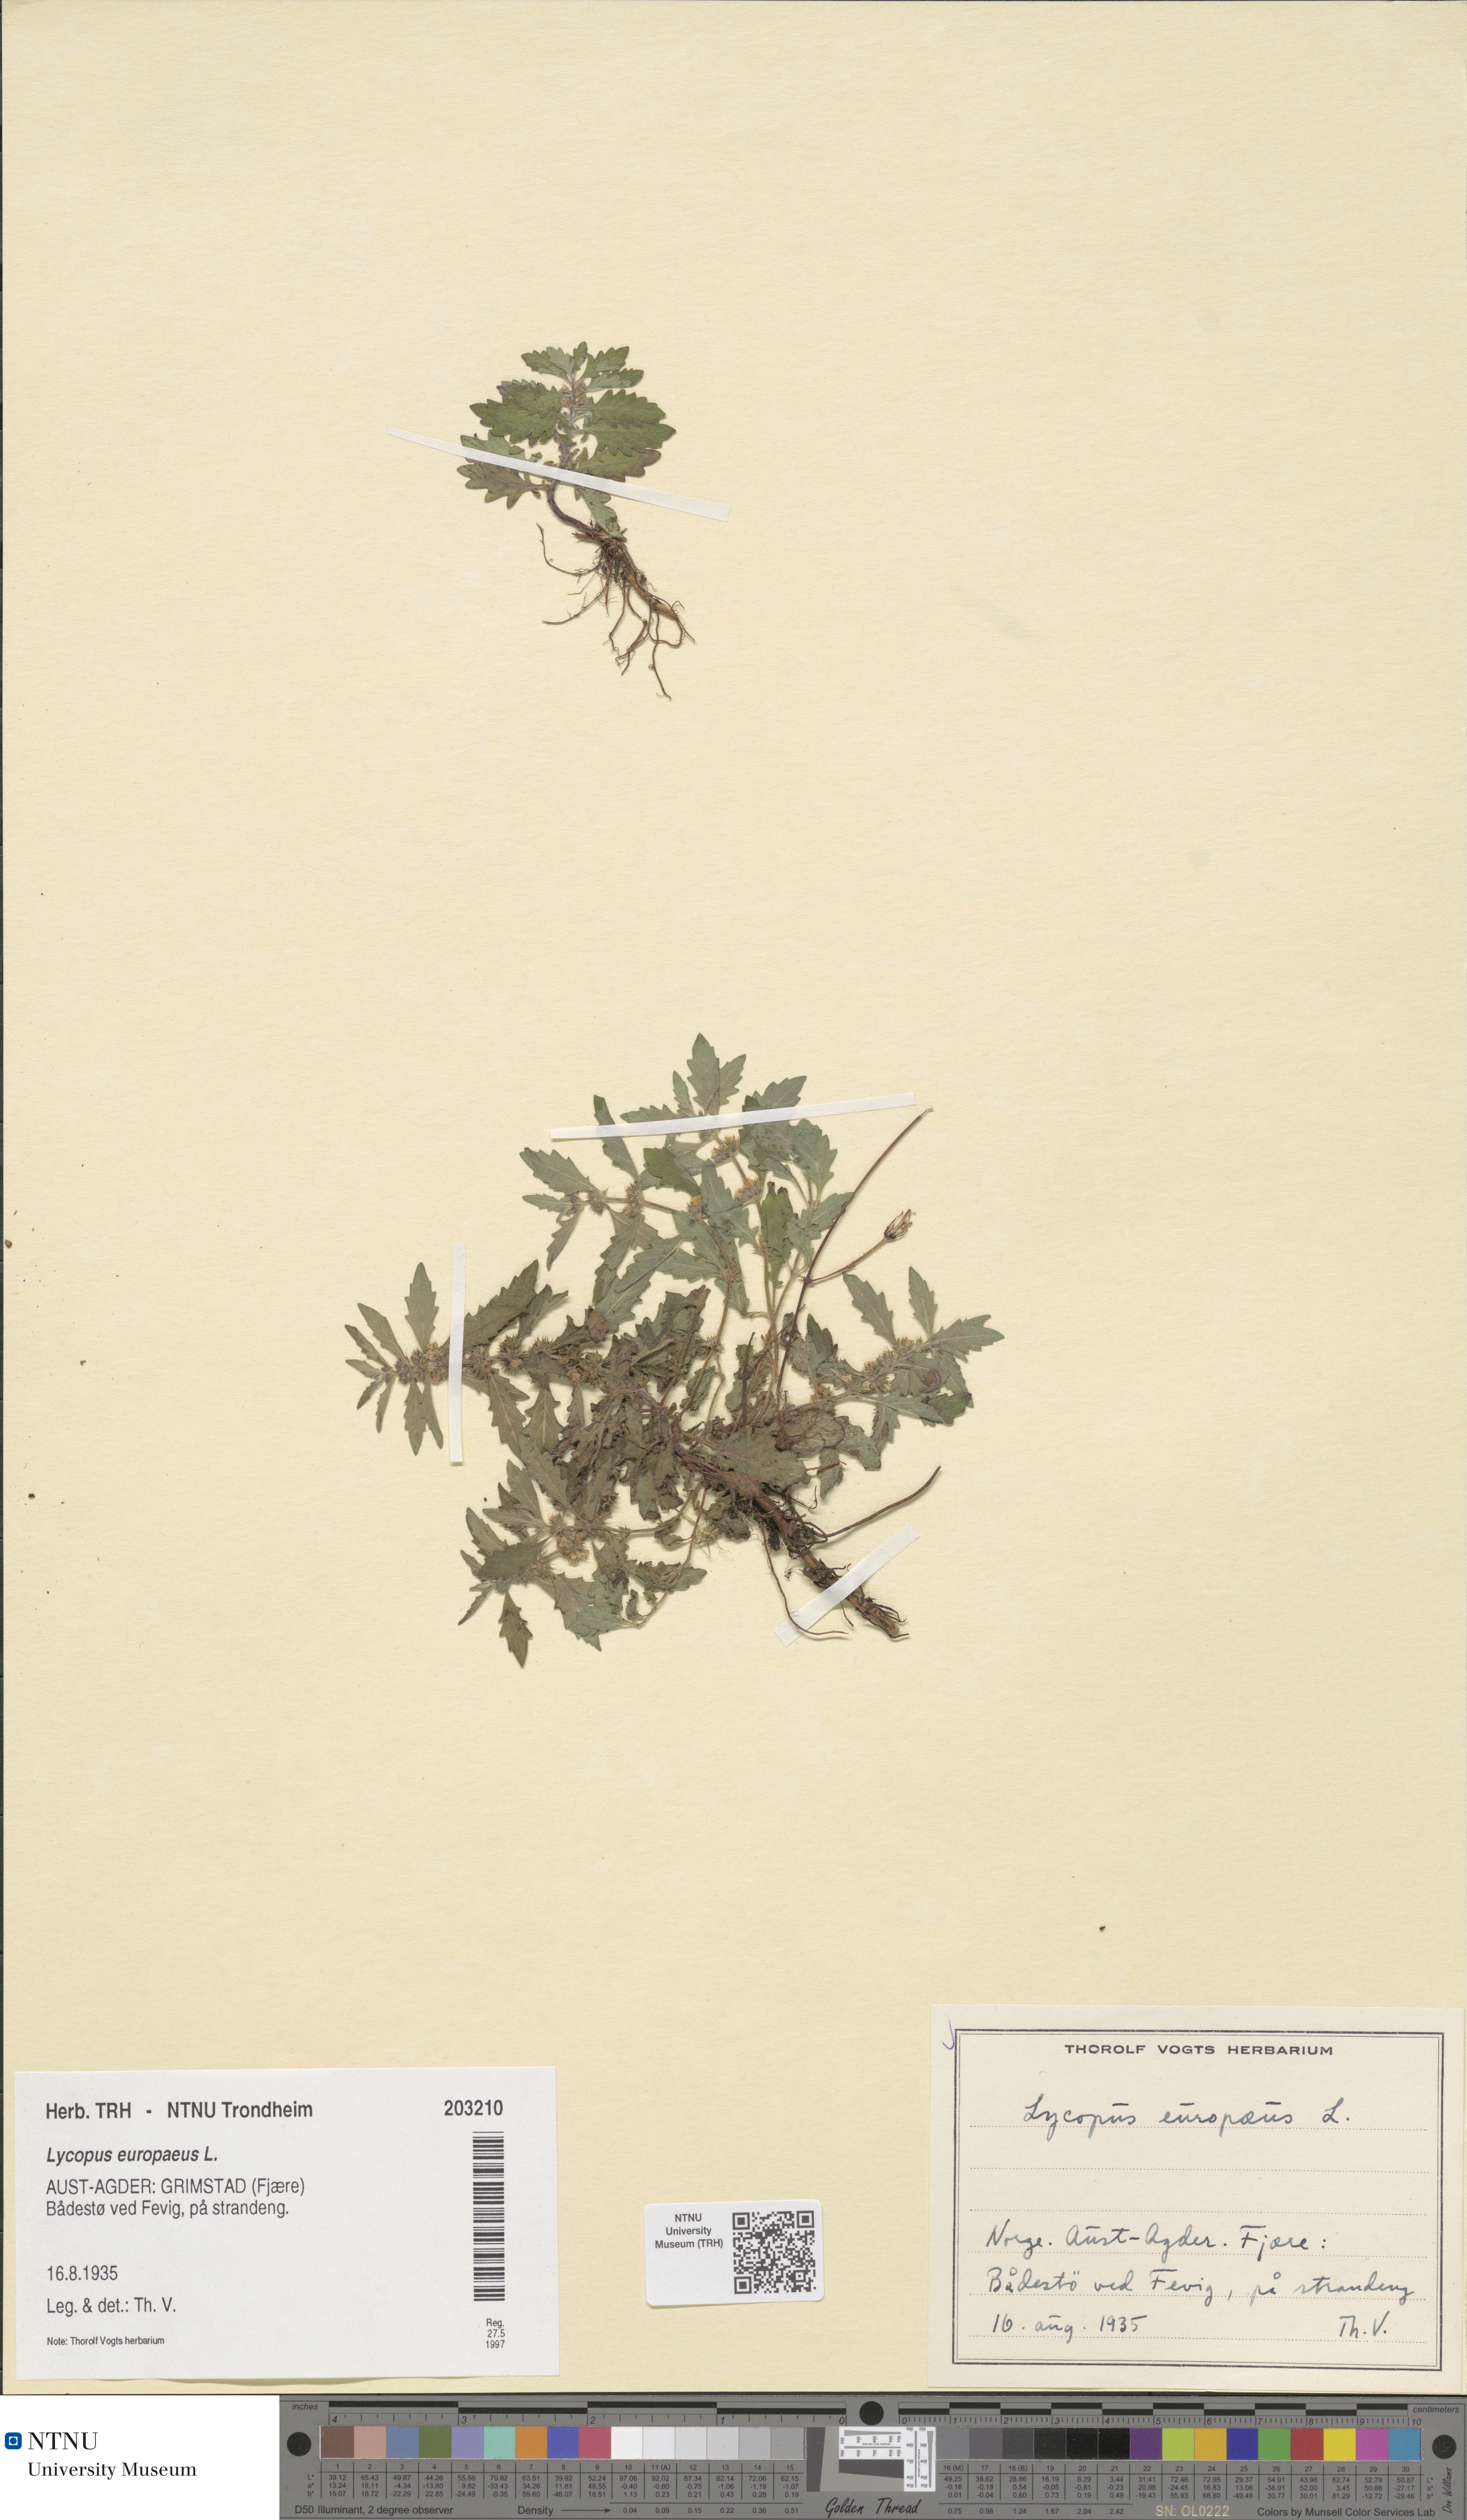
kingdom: Plantae
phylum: Tracheophyta
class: Magnoliopsida
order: Lamiales
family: Lamiaceae
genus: Lycopus
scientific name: Lycopus europaeus
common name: European bugleweed
